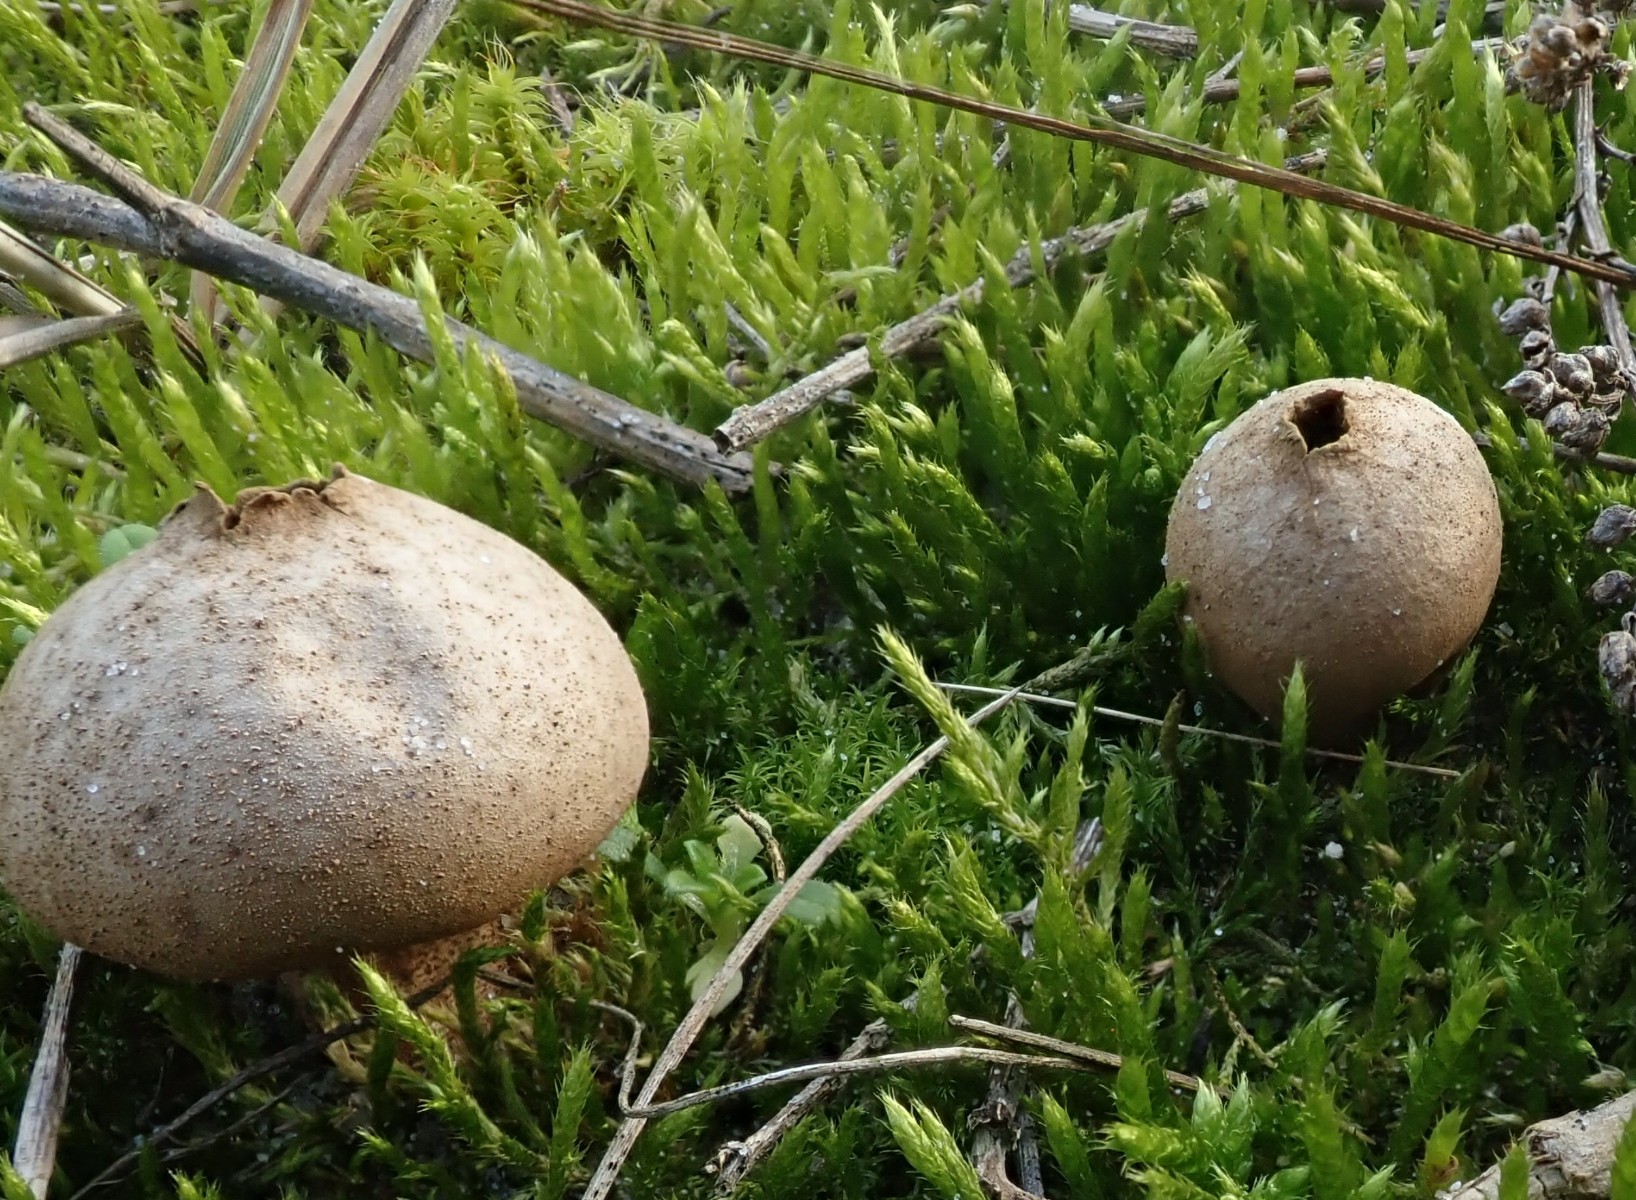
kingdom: Fungi
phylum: Basidiomycota
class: Agaricomycetes
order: Agaricales
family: Lycoperdaceae
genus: Lycoperdon
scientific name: Lycoperdon lividum
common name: mark-støvbold
